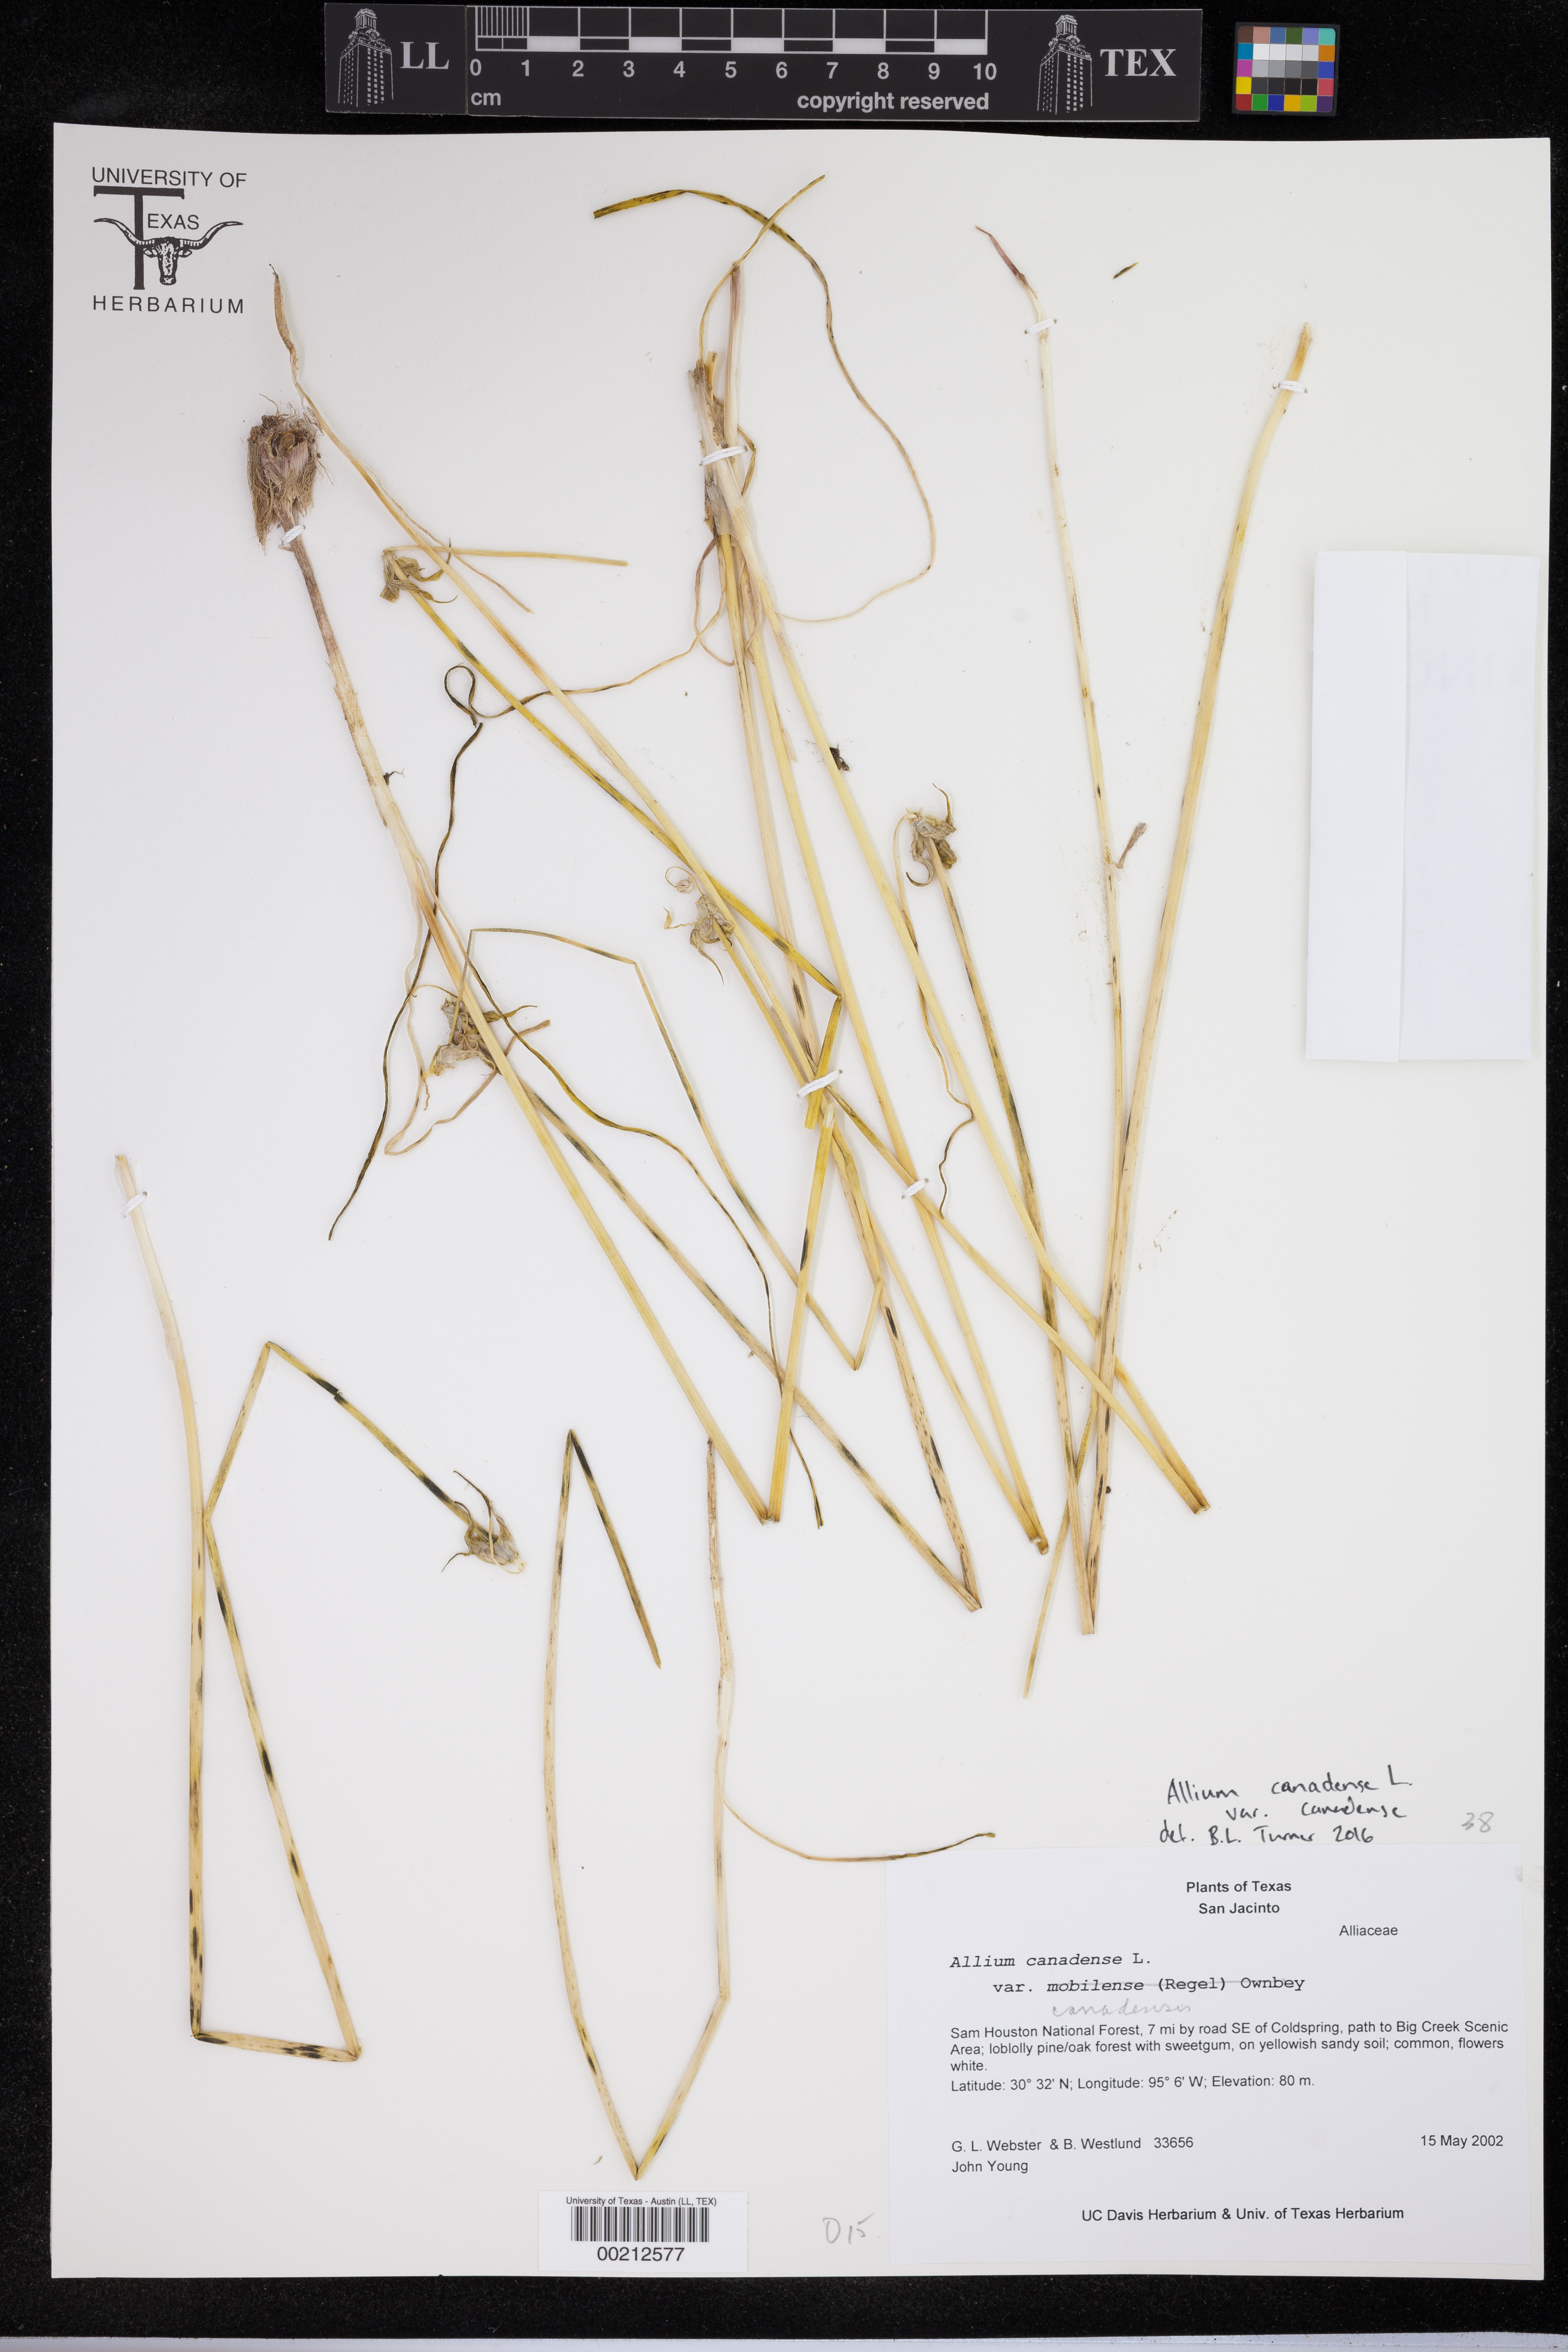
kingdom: Plantae
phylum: Tracheophyta
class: Liliopsida
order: Asparagales
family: Amaryllidaceae
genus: Allium
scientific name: Allium canadense
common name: Meadow garlic
